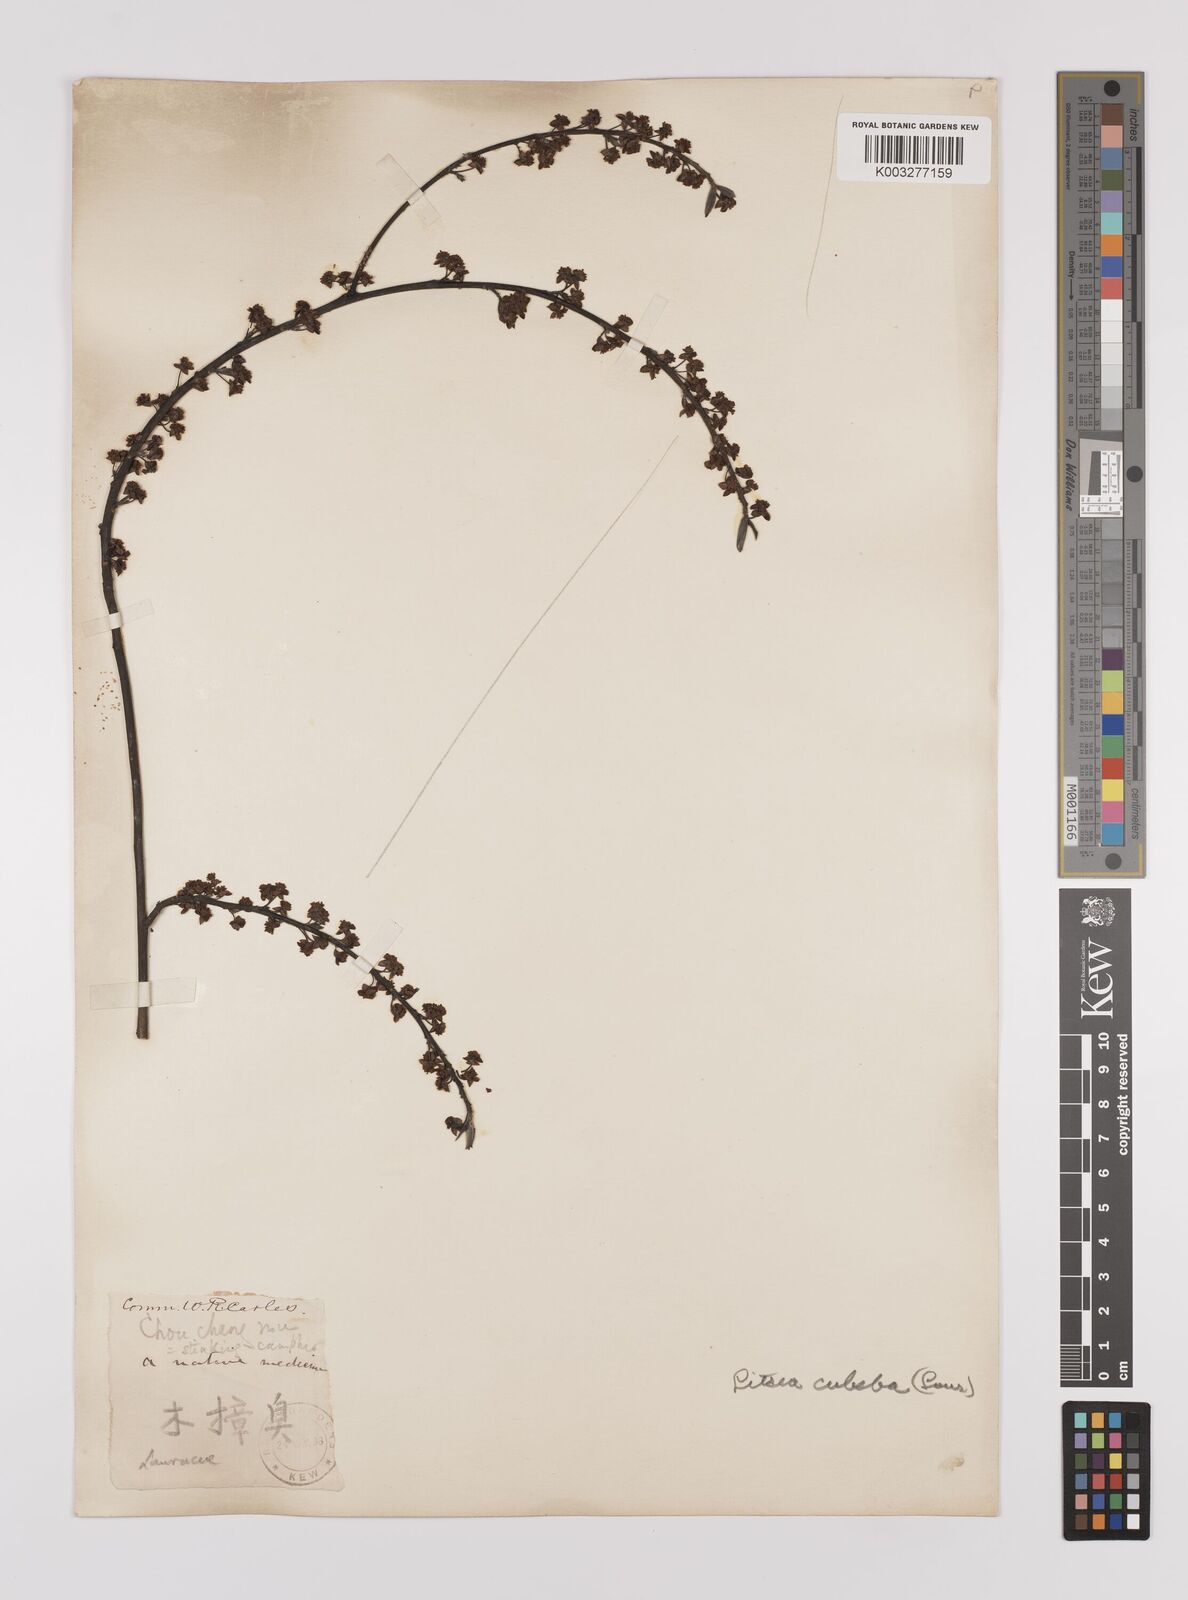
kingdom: Plantae
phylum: Tracheophyta
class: Magnoliopsida
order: Laurales
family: Lauraceae
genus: Litsea
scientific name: Litsea cubeba
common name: Mountain-pepper
